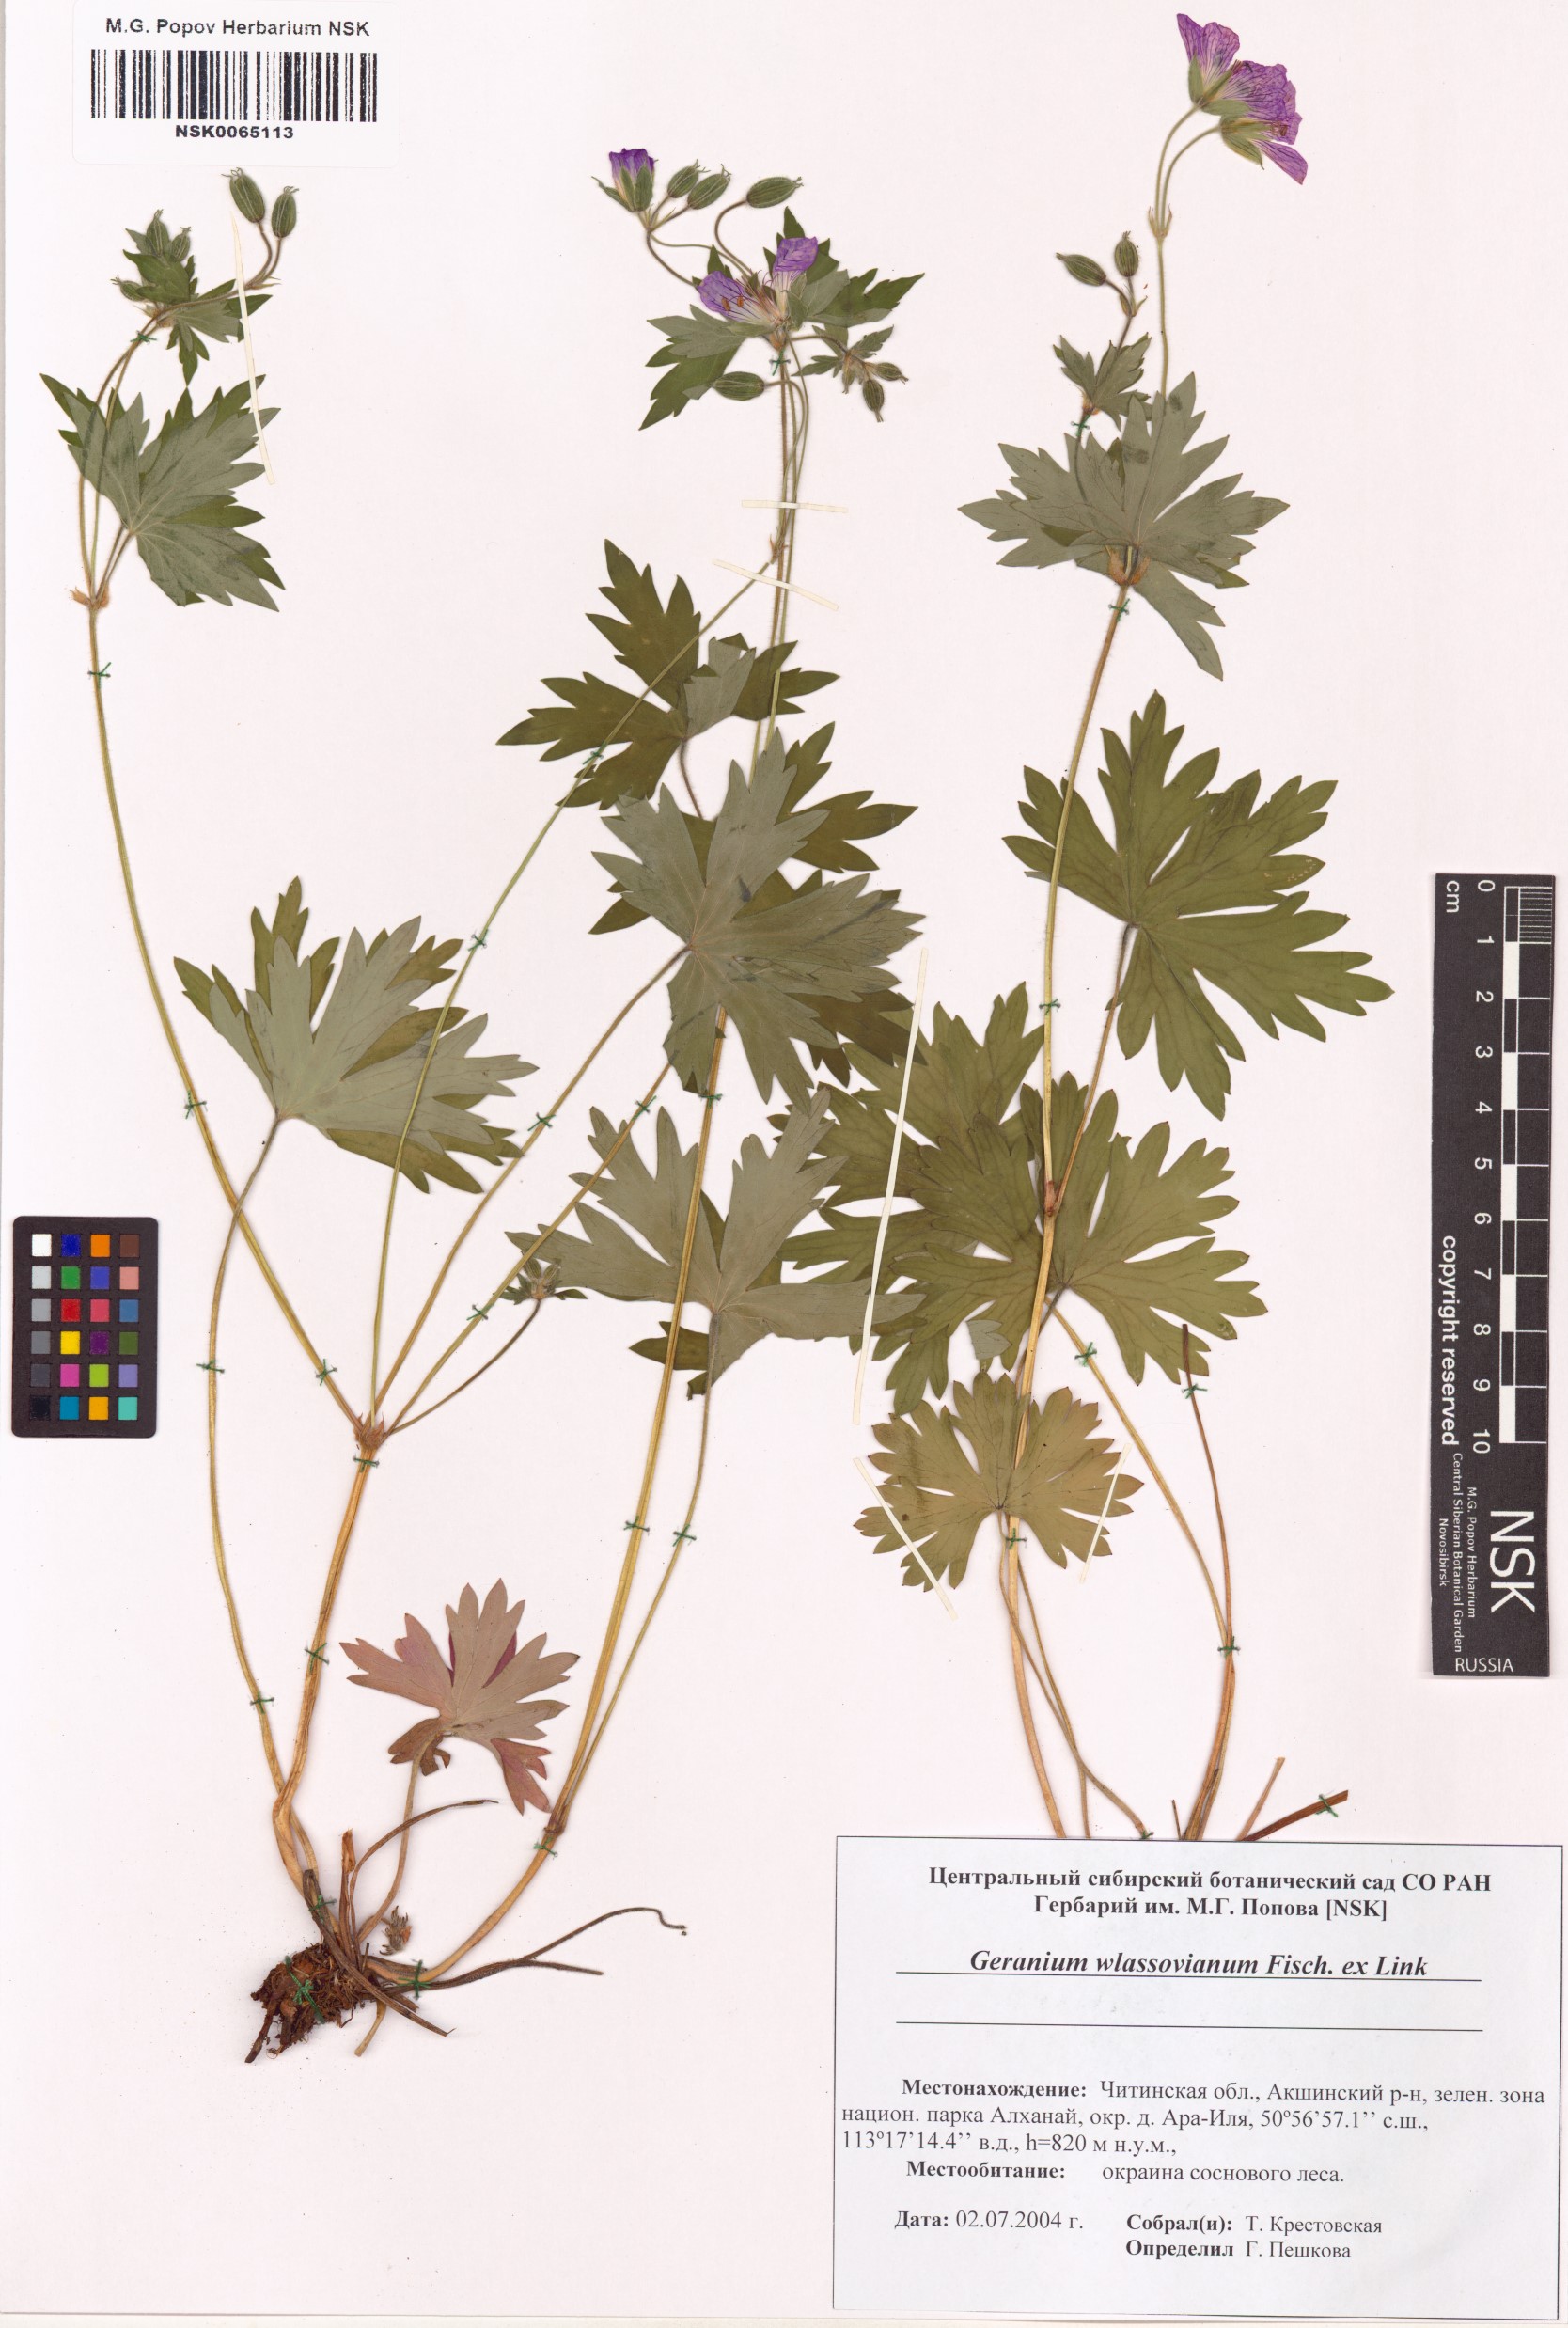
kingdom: Plantae
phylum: Tracheophyta
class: Magnoliopsida
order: Geraniales
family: Geraniaceae
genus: Geranium
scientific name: Geranium wlassovianum
